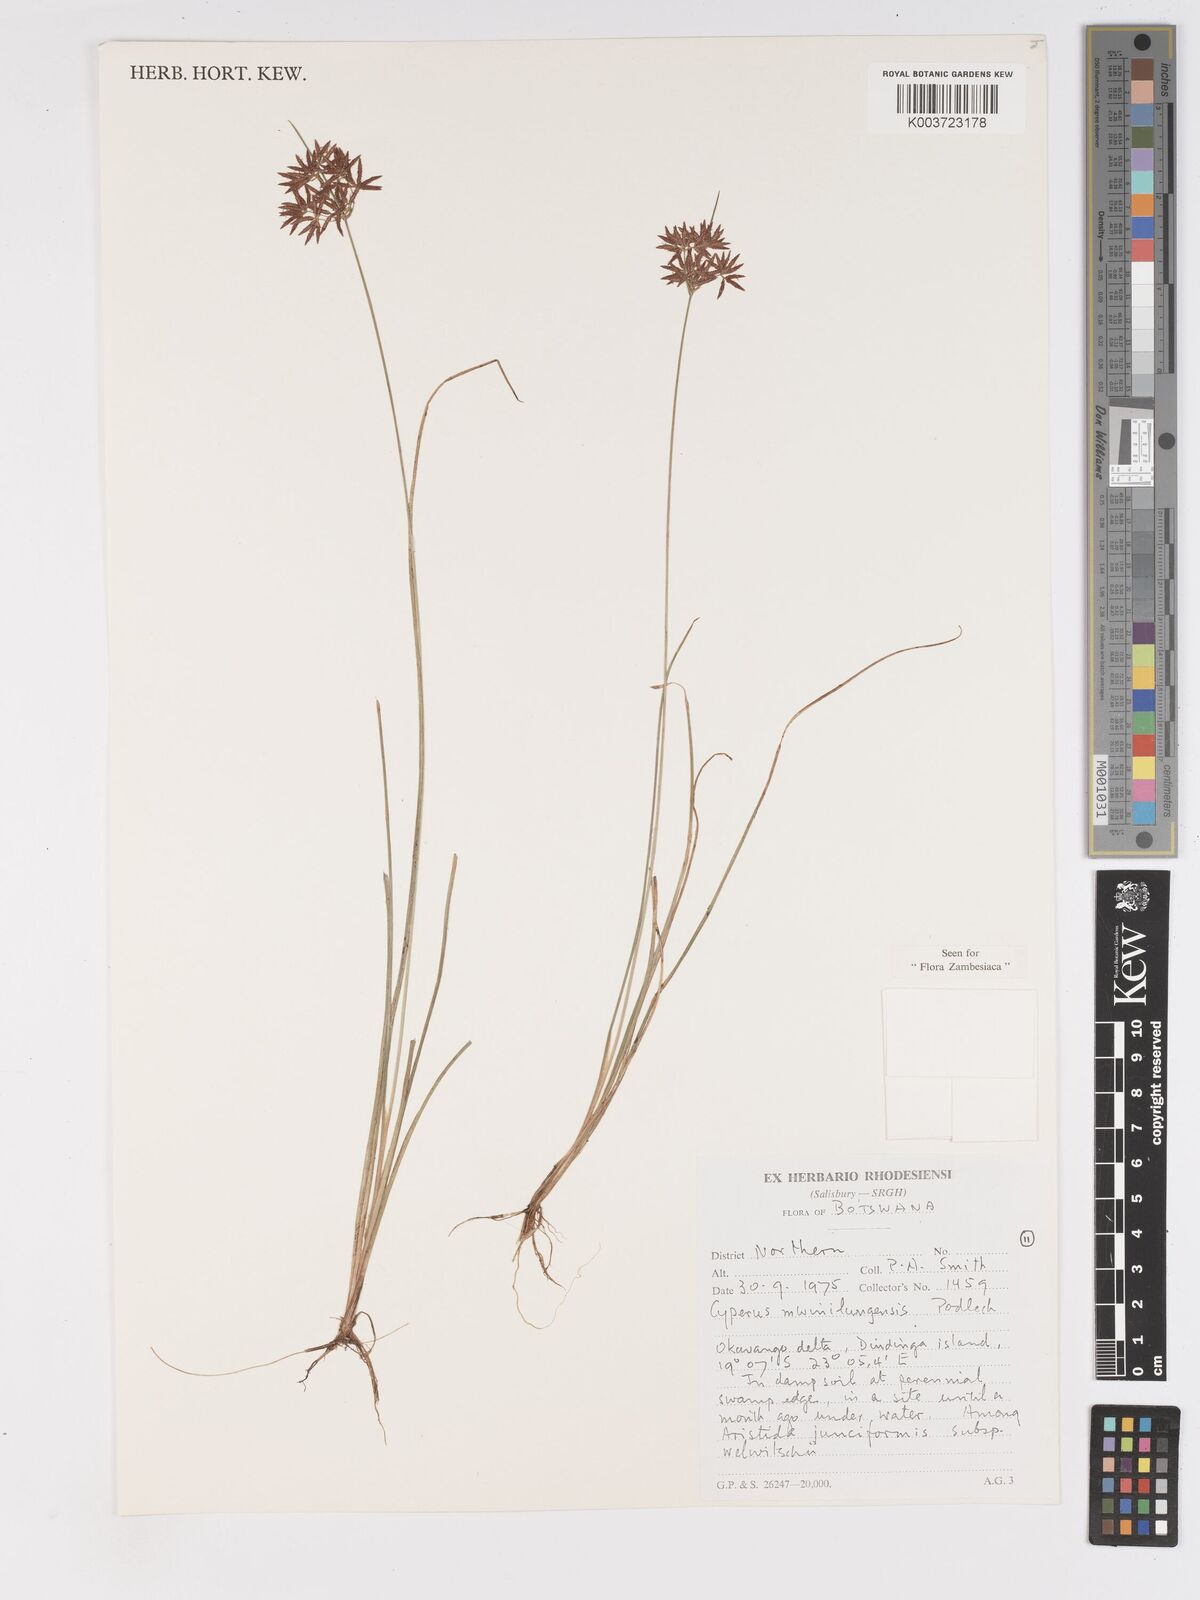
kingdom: Plantae
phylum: Tracheophyta
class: Liliopsida
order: Poales
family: Cyperaceae
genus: Cyperus
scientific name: Cyperus mwinilungensis
